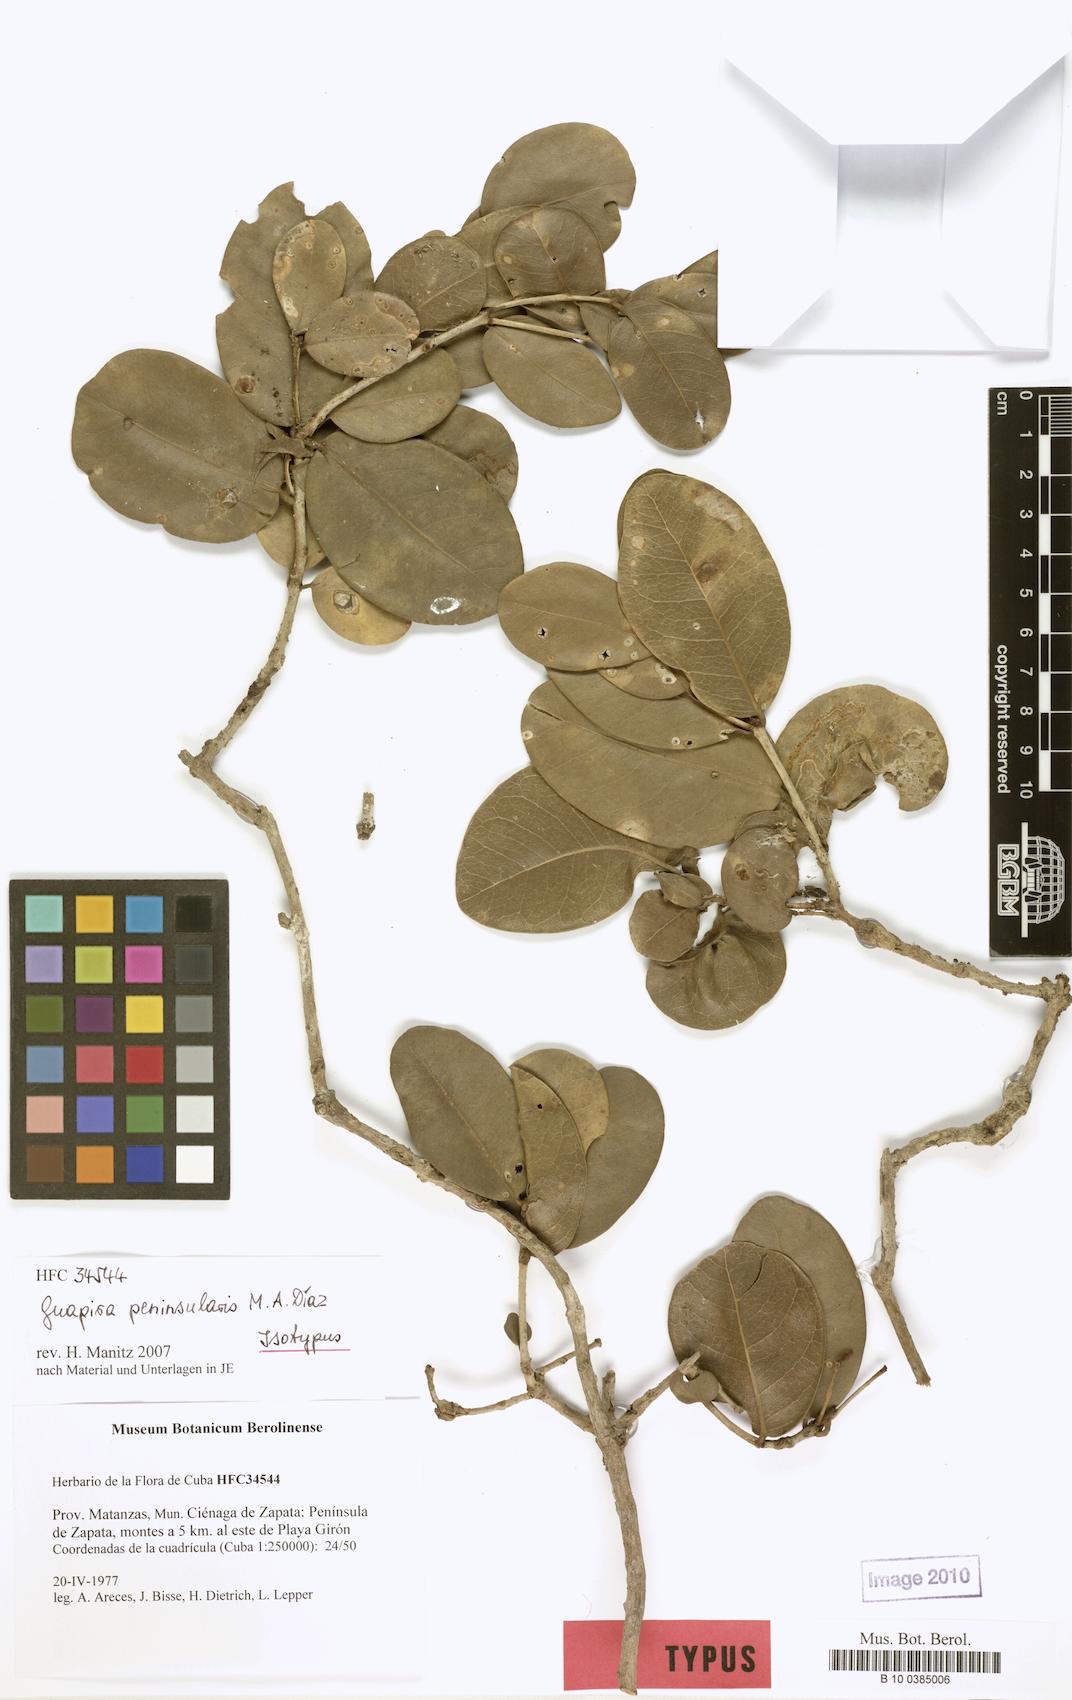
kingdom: Plantae
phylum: Tracheophyta
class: Magnoliopsida
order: Caryophyllales
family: Nyctaginaceae
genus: Guapira
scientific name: Guapira peninsularis
